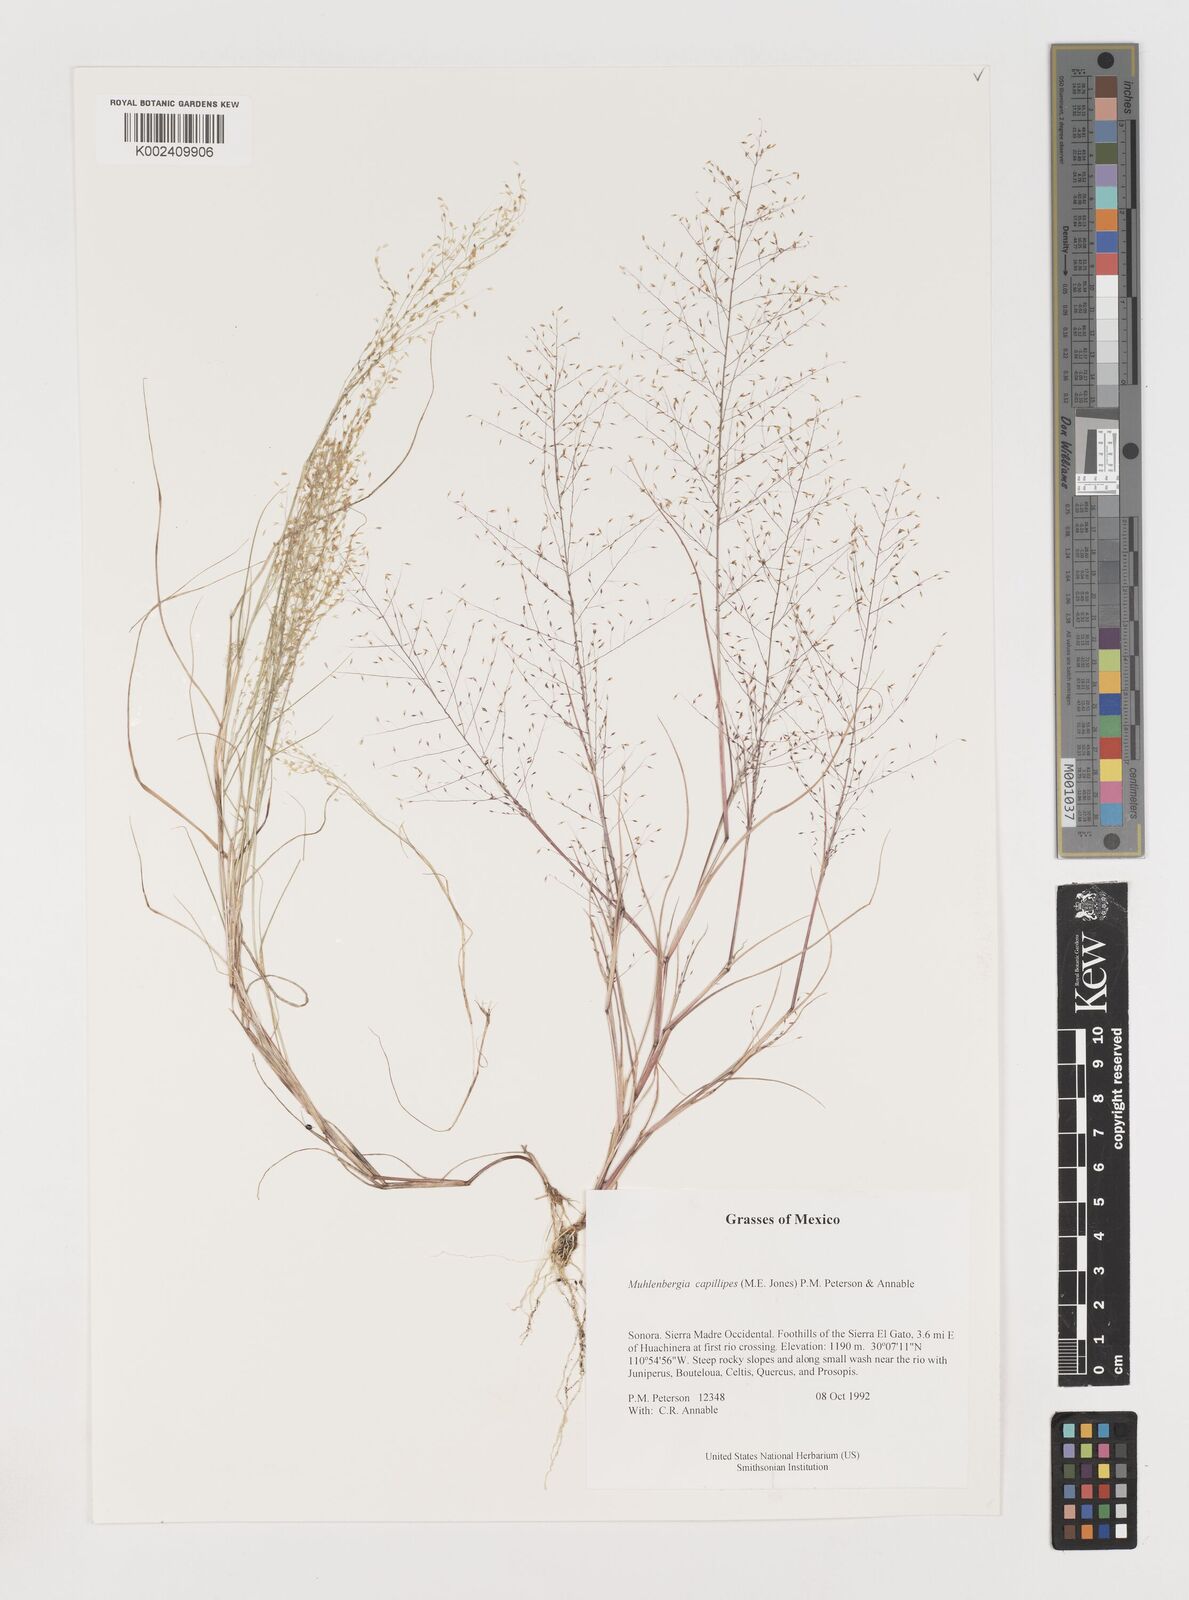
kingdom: Plantae
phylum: Tracheophyta
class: Liliopsida
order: Poales
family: Poaceae
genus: Muhlenbergia
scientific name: Muhlenbergia capillipes
